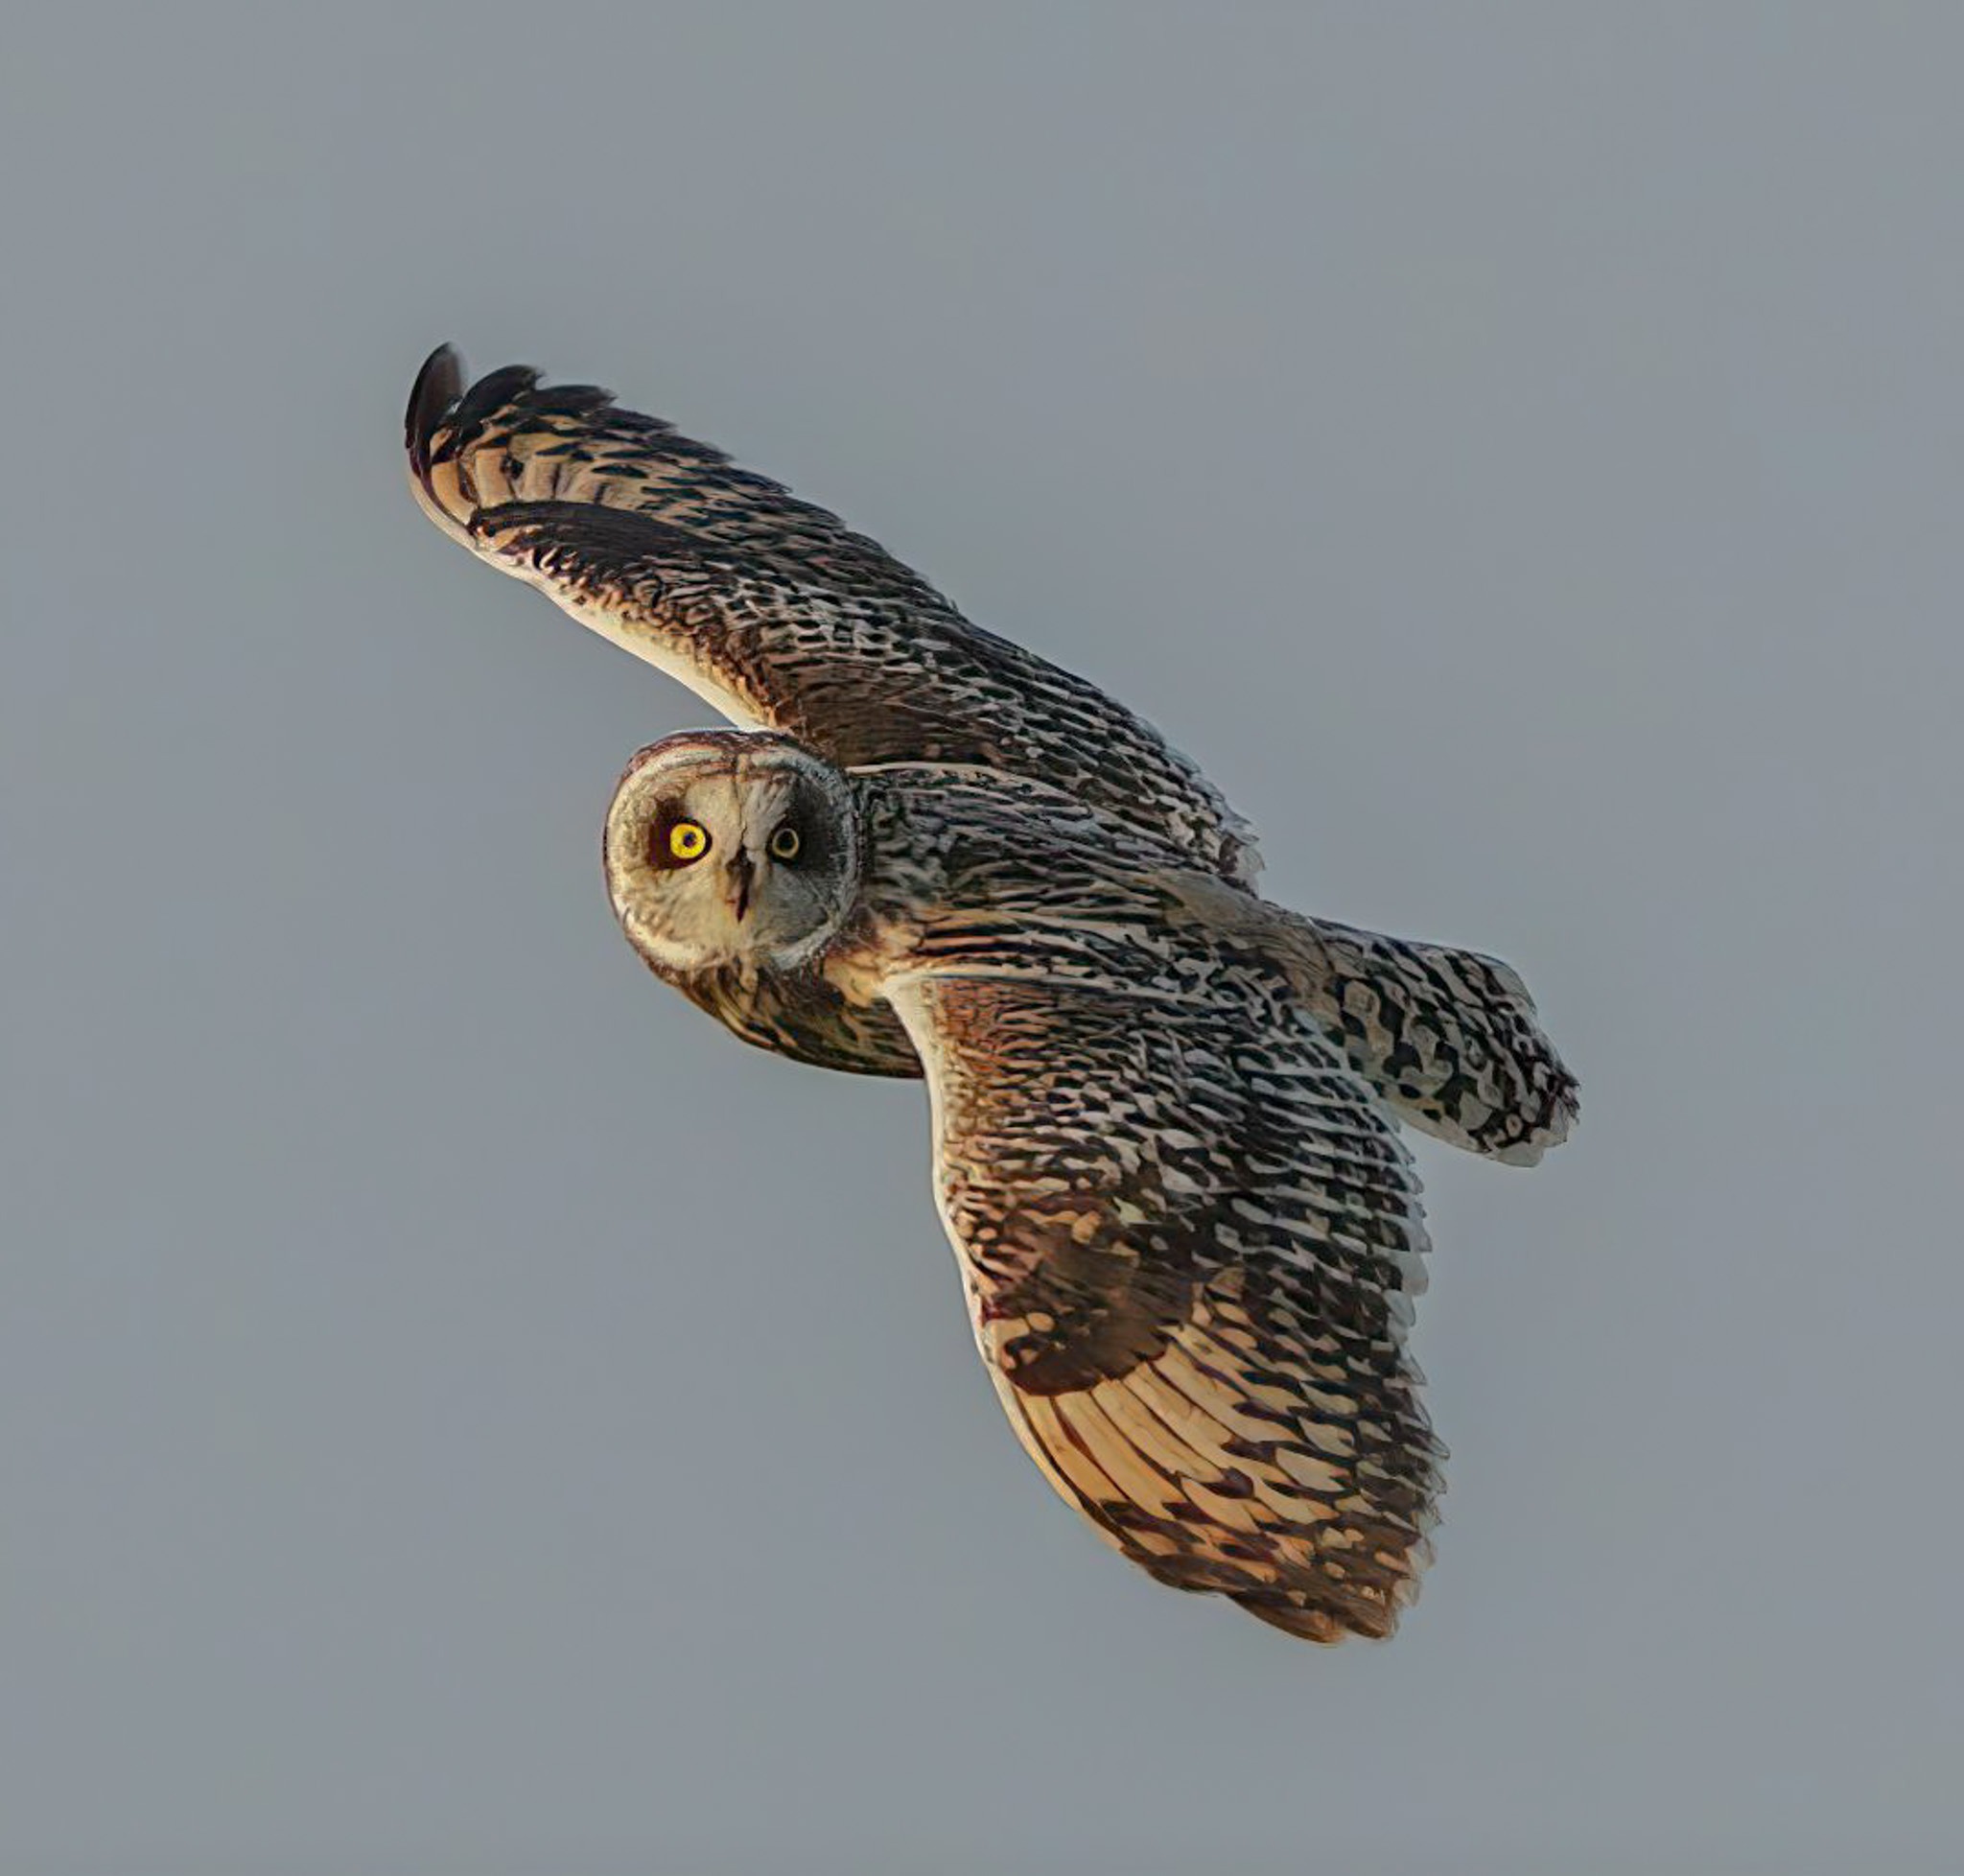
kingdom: Animalia
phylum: Chordata
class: Aves
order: Strigiformes
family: Strigidae
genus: Asio
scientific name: Asio flammeus
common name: Mosehornugle
